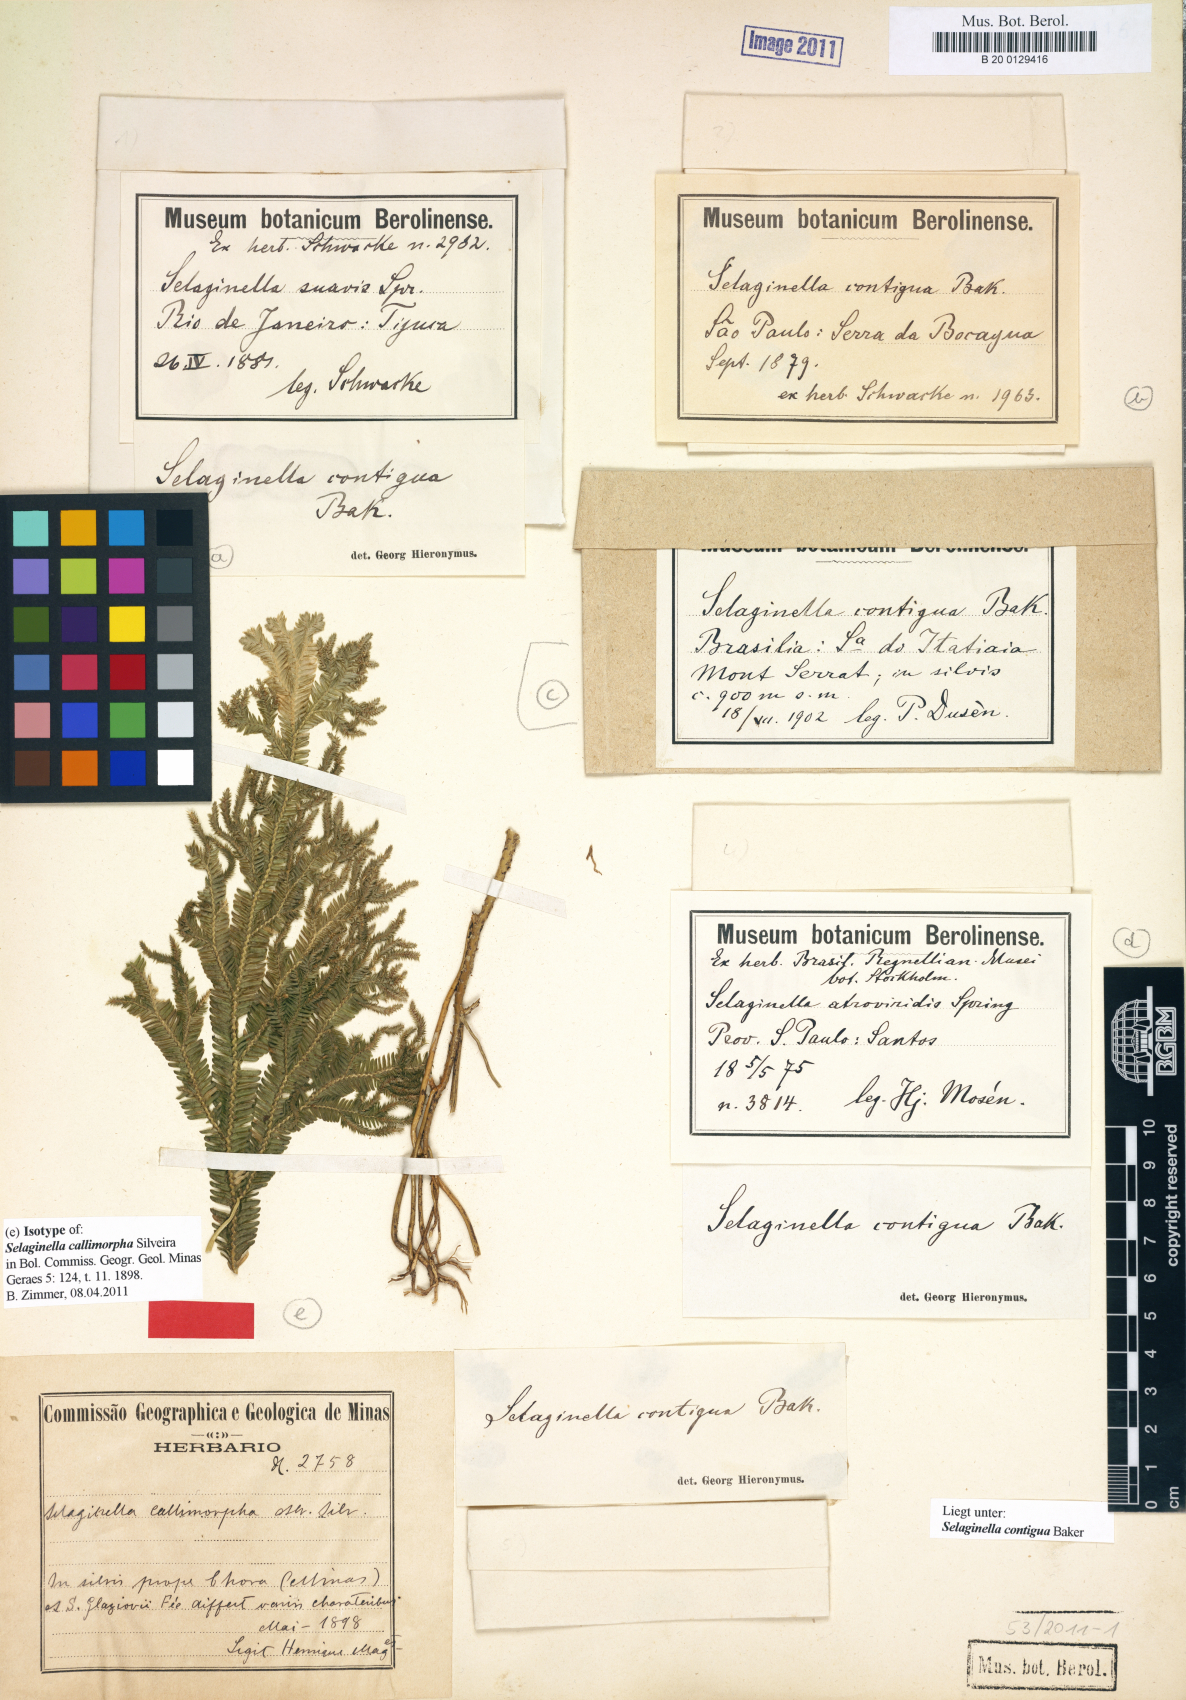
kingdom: Plantae
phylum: Tracheophyta
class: Lycopodiopsida
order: Selaginellales
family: Selaginellaceae
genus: Selaginella
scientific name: Selaginella contigua
